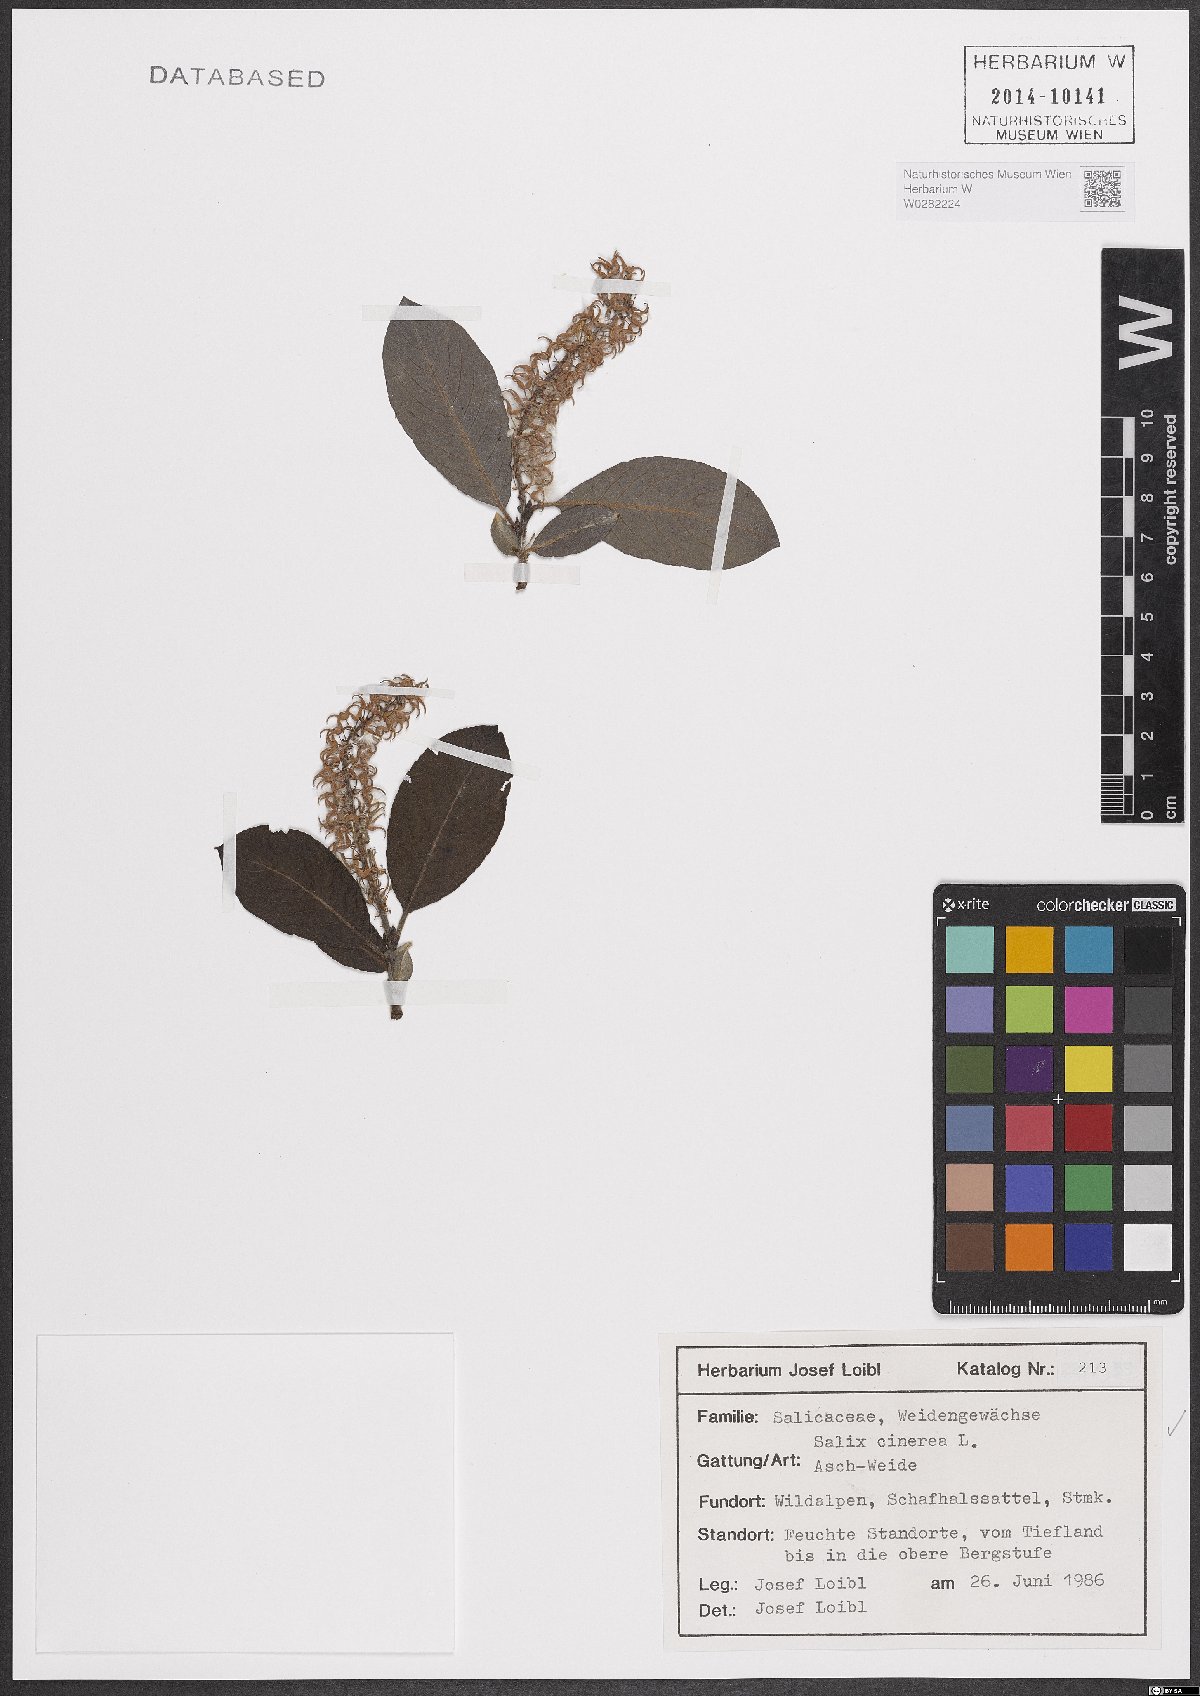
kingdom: Plantae
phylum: Tracheophyta
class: Magnoliopsida
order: Malpighiales
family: Salicaceae
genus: Salix
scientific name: Salix cinerea
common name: Common sallow
